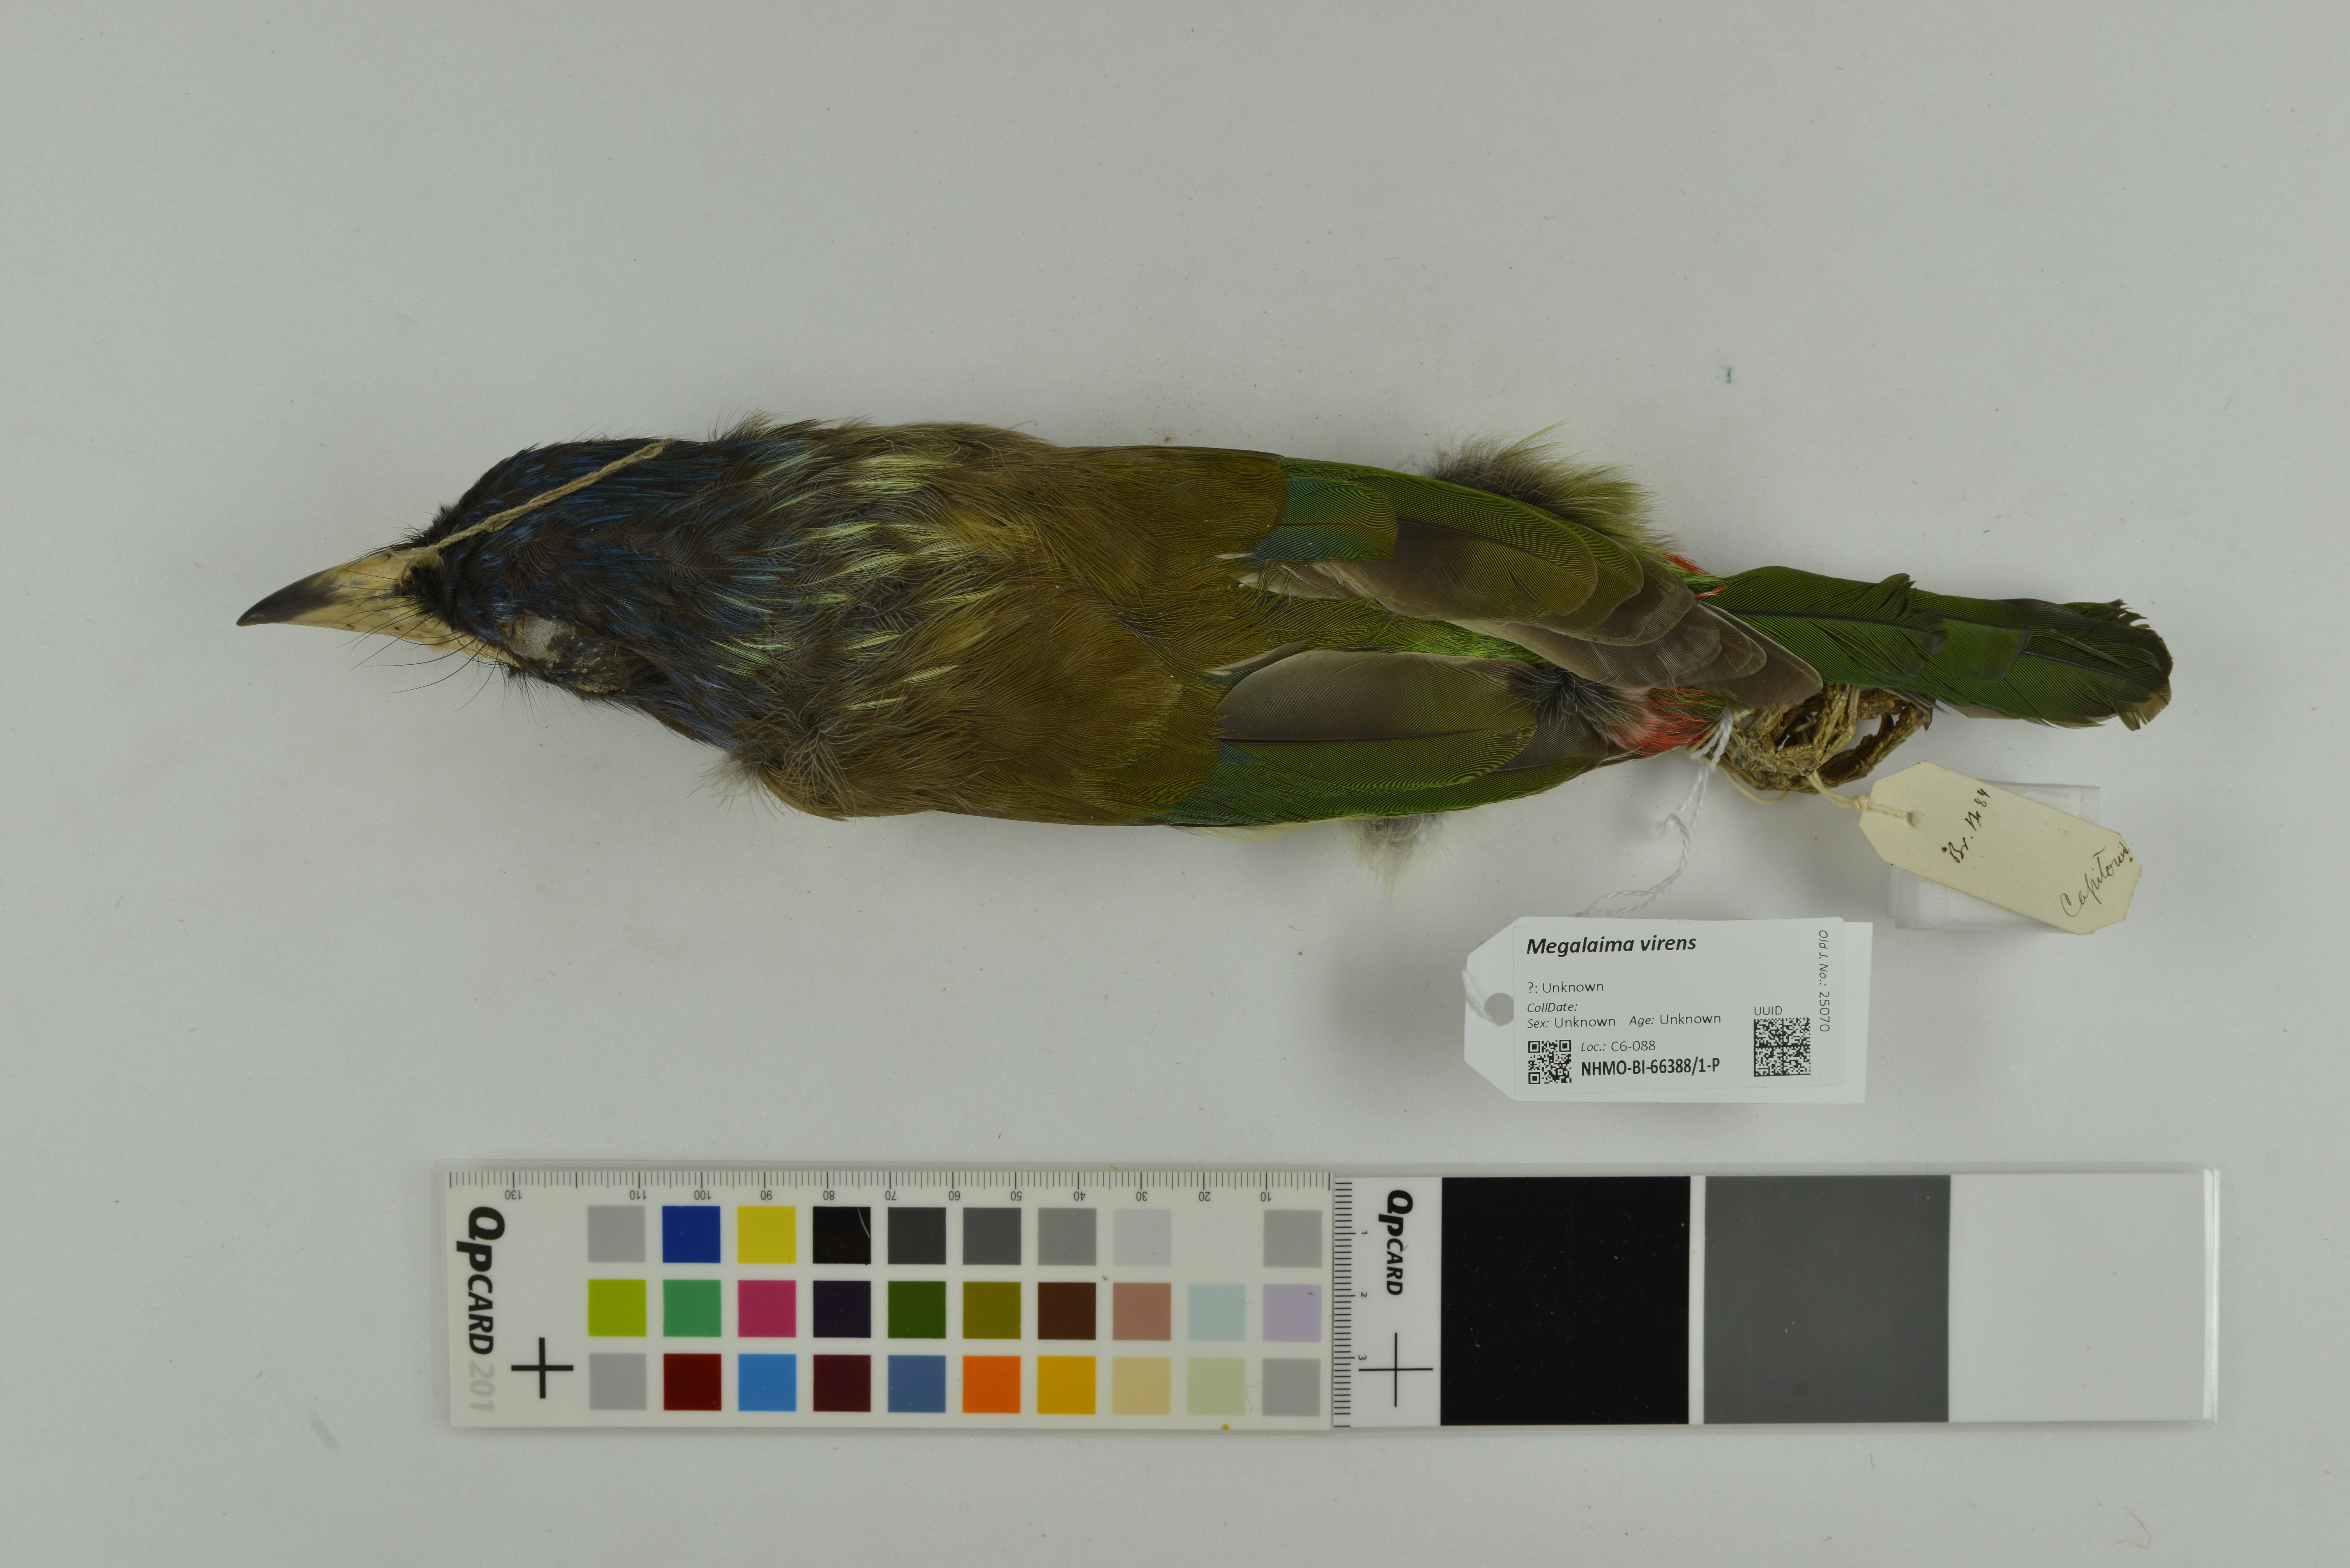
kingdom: Animalia
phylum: Chordata
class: Aves
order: Piciformes
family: Megalaimidae
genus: Psilopogon
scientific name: Psilopogon virens
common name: Great barbet
